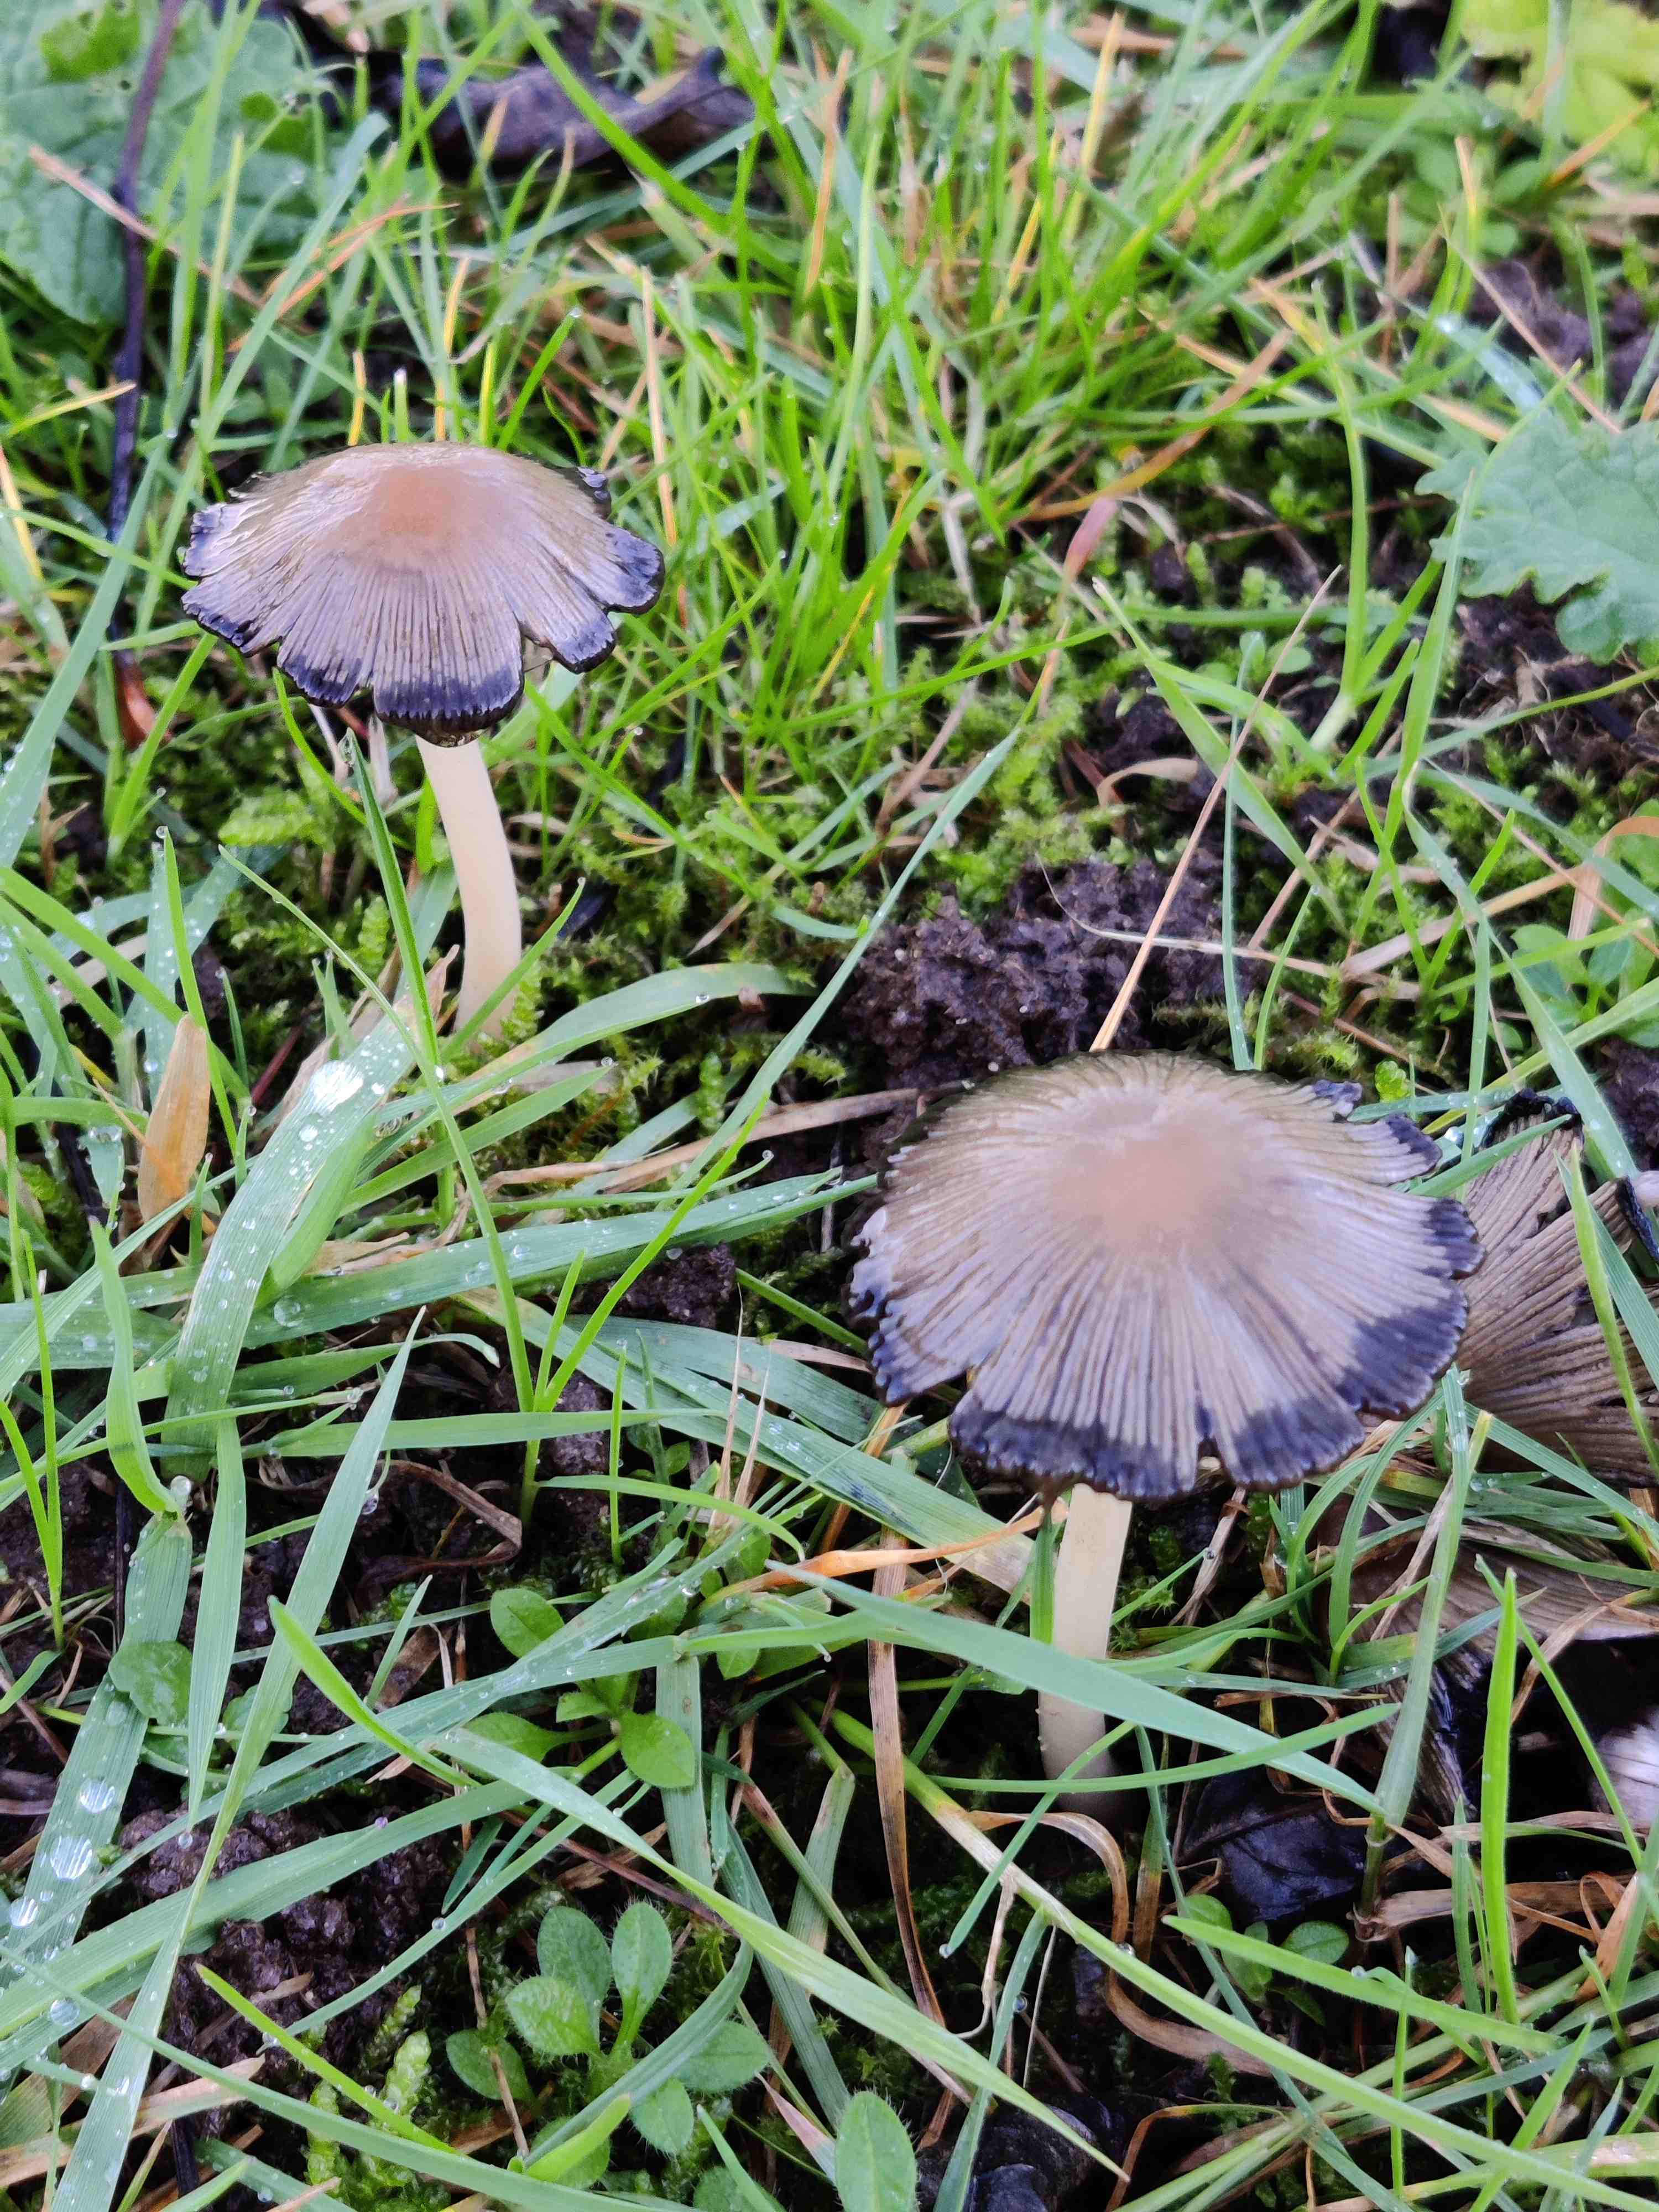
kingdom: Fungi
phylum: Basidiomycota
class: Agaricomycetes
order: Agaricales
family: Psathyrellaceae
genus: Coprinellus
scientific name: Coprinellus
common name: blækhat
